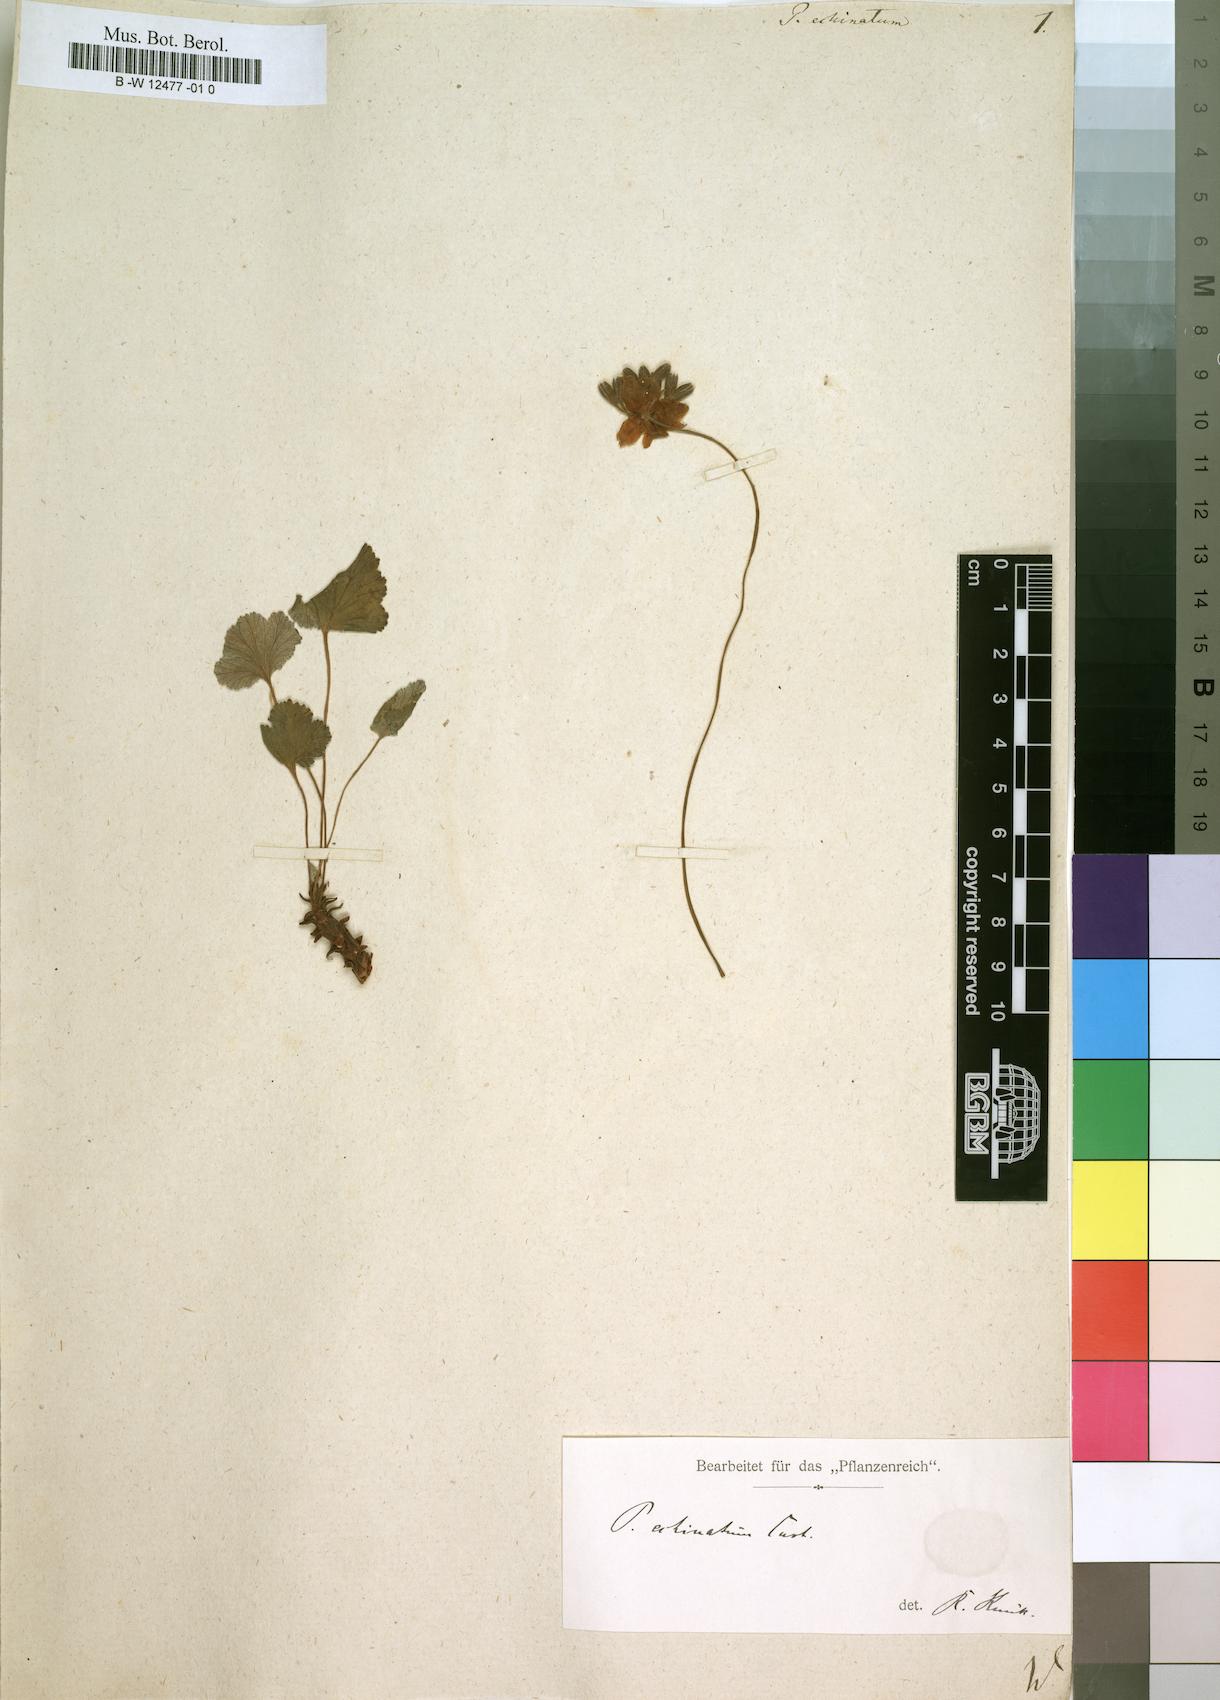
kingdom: Plantae
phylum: Tracheophyta
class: Magnoliopsida
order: Geraniales
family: Geraniaceae
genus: Pelargonium
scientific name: Pelargonium echinatum
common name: Cactus geranium
